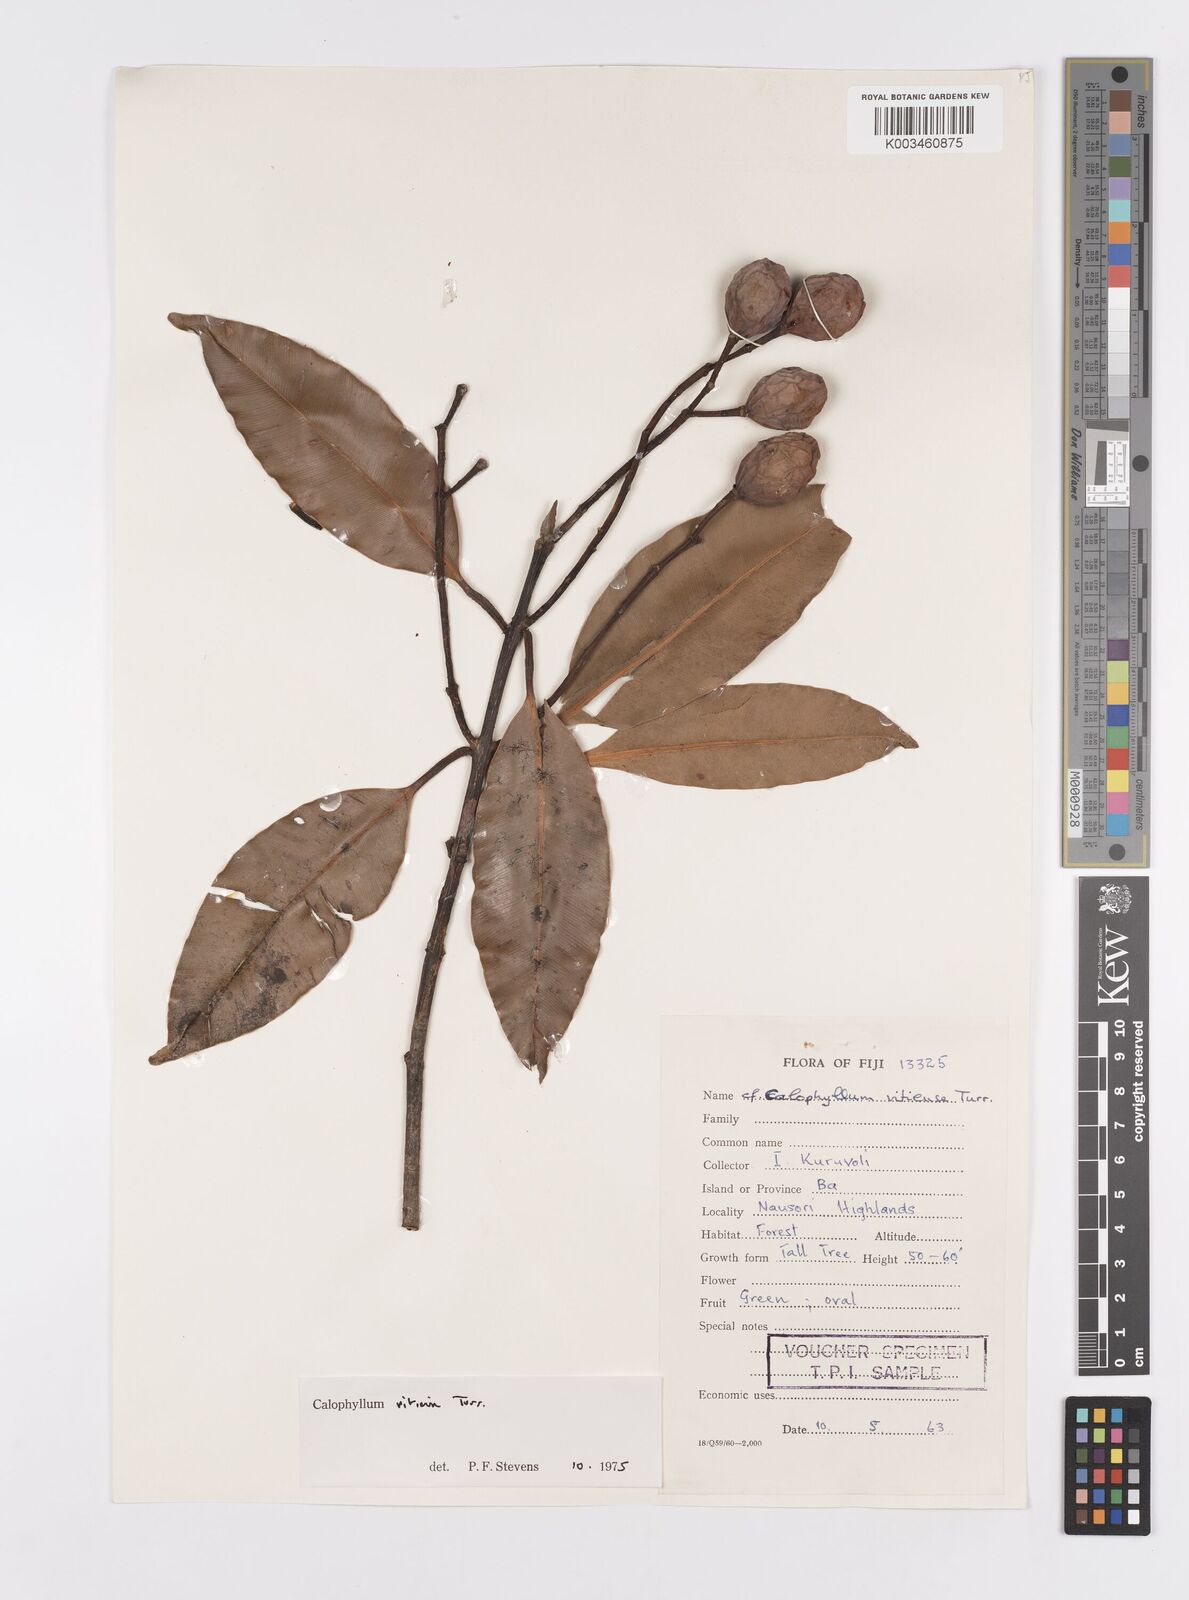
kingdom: Plantae
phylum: Tracheophyta
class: Magnoliopsida
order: Malpighiales
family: Calophyllaceae
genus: Calophyllum
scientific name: Calophyllum vitiense
